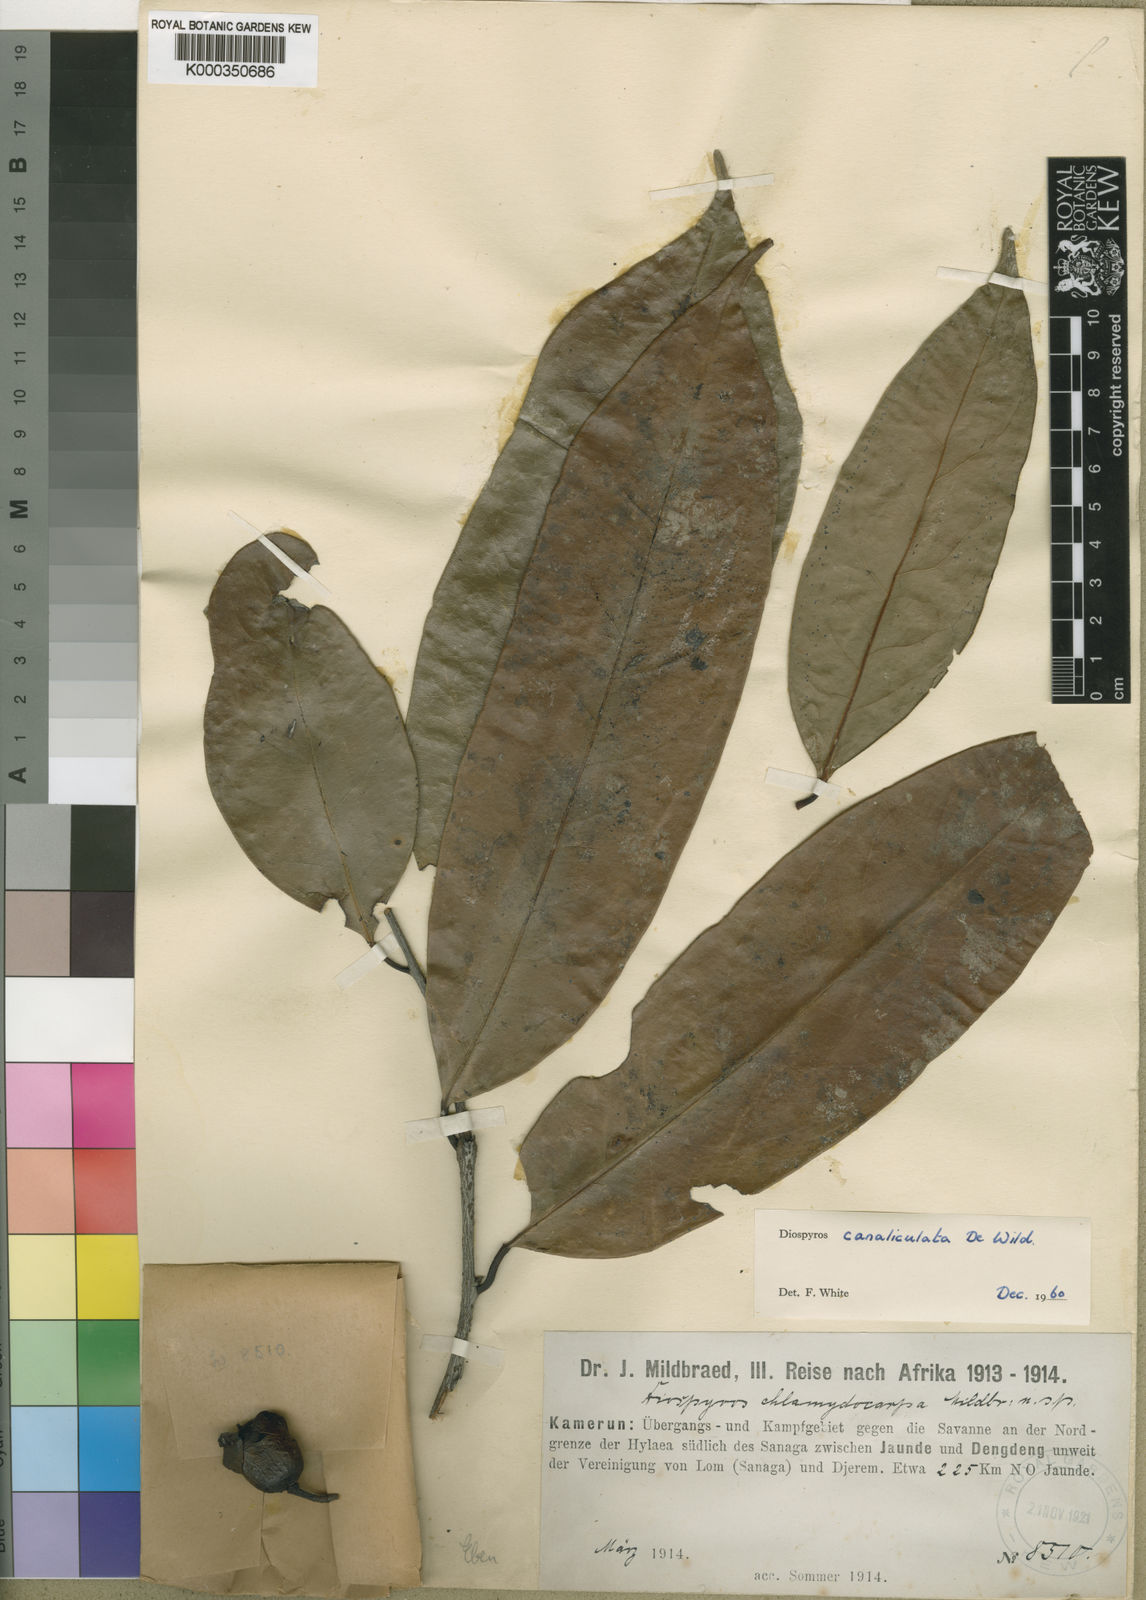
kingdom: Plantae
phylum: Tracheophyta
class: Magnoliopsida
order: Ericales
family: Ebenaceae
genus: Diospyros
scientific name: Diospyros canaliculata
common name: Flint bark
